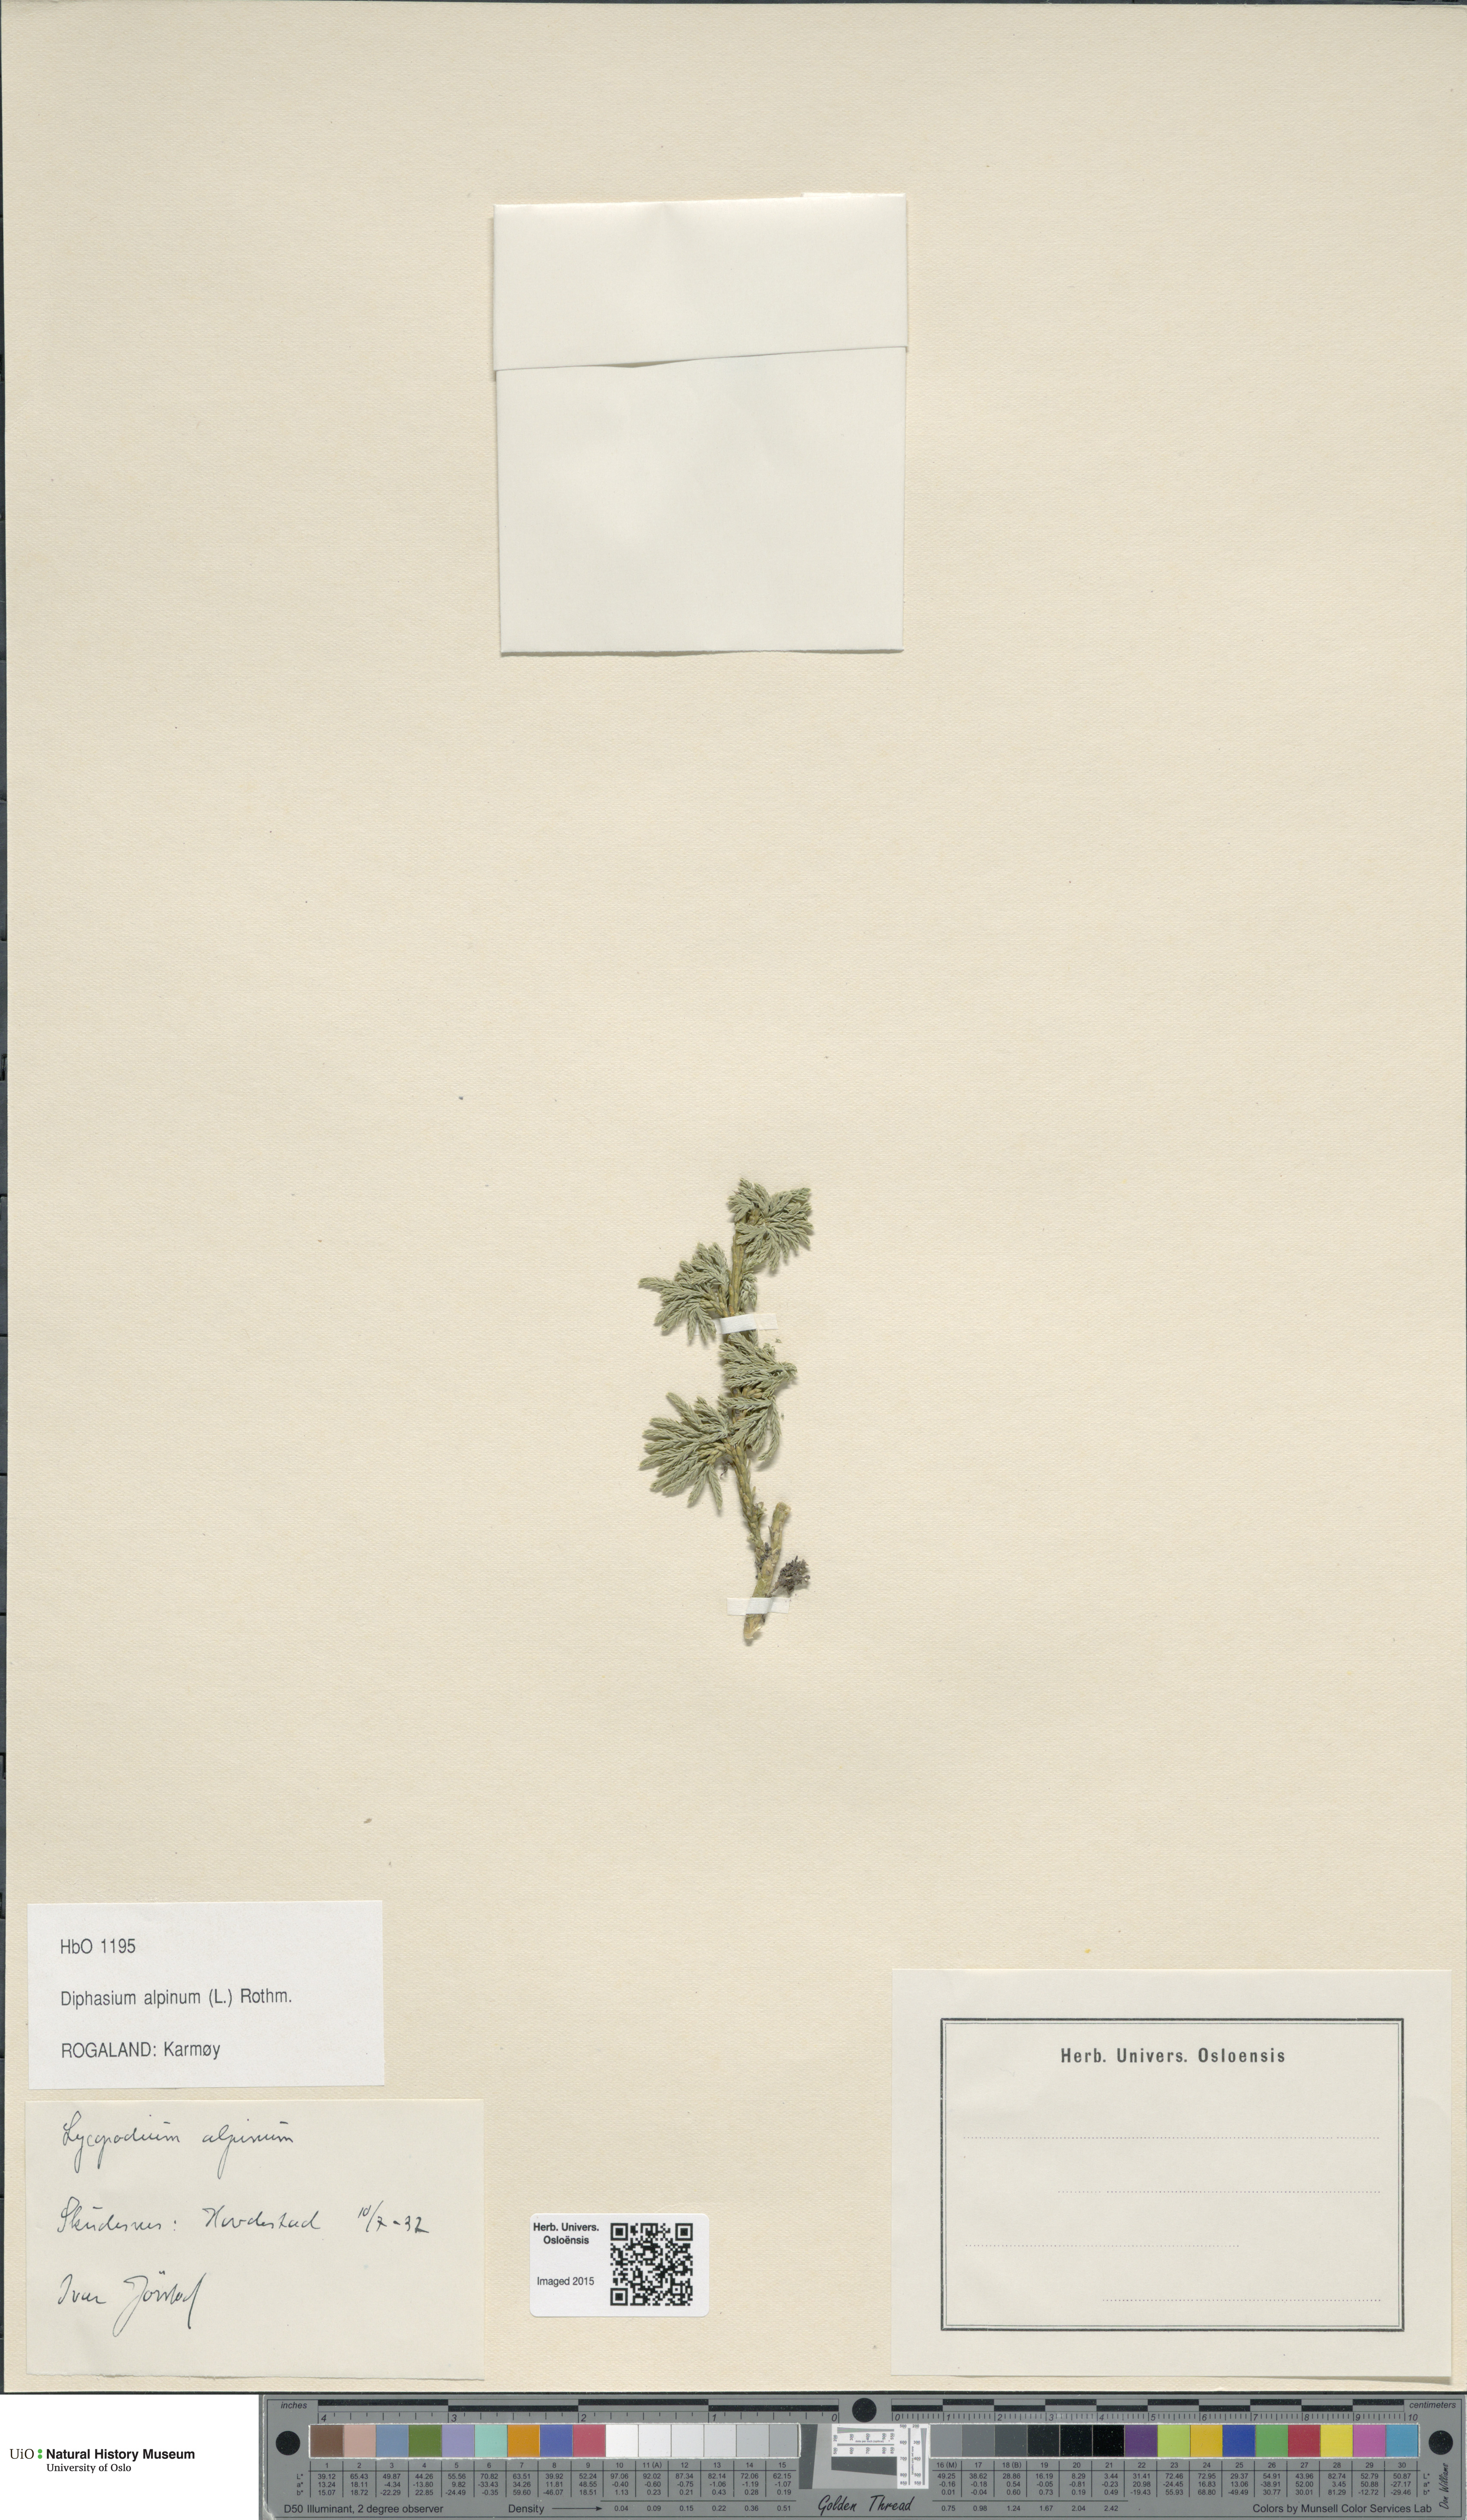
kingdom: Plantae
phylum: Tracheophyta
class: Lycopodiopsida
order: Lycopodiales
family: Lycopodiaceae
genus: Diphasiastrum
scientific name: Diphasiastrum alpinum
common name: Alpine clubmoss
